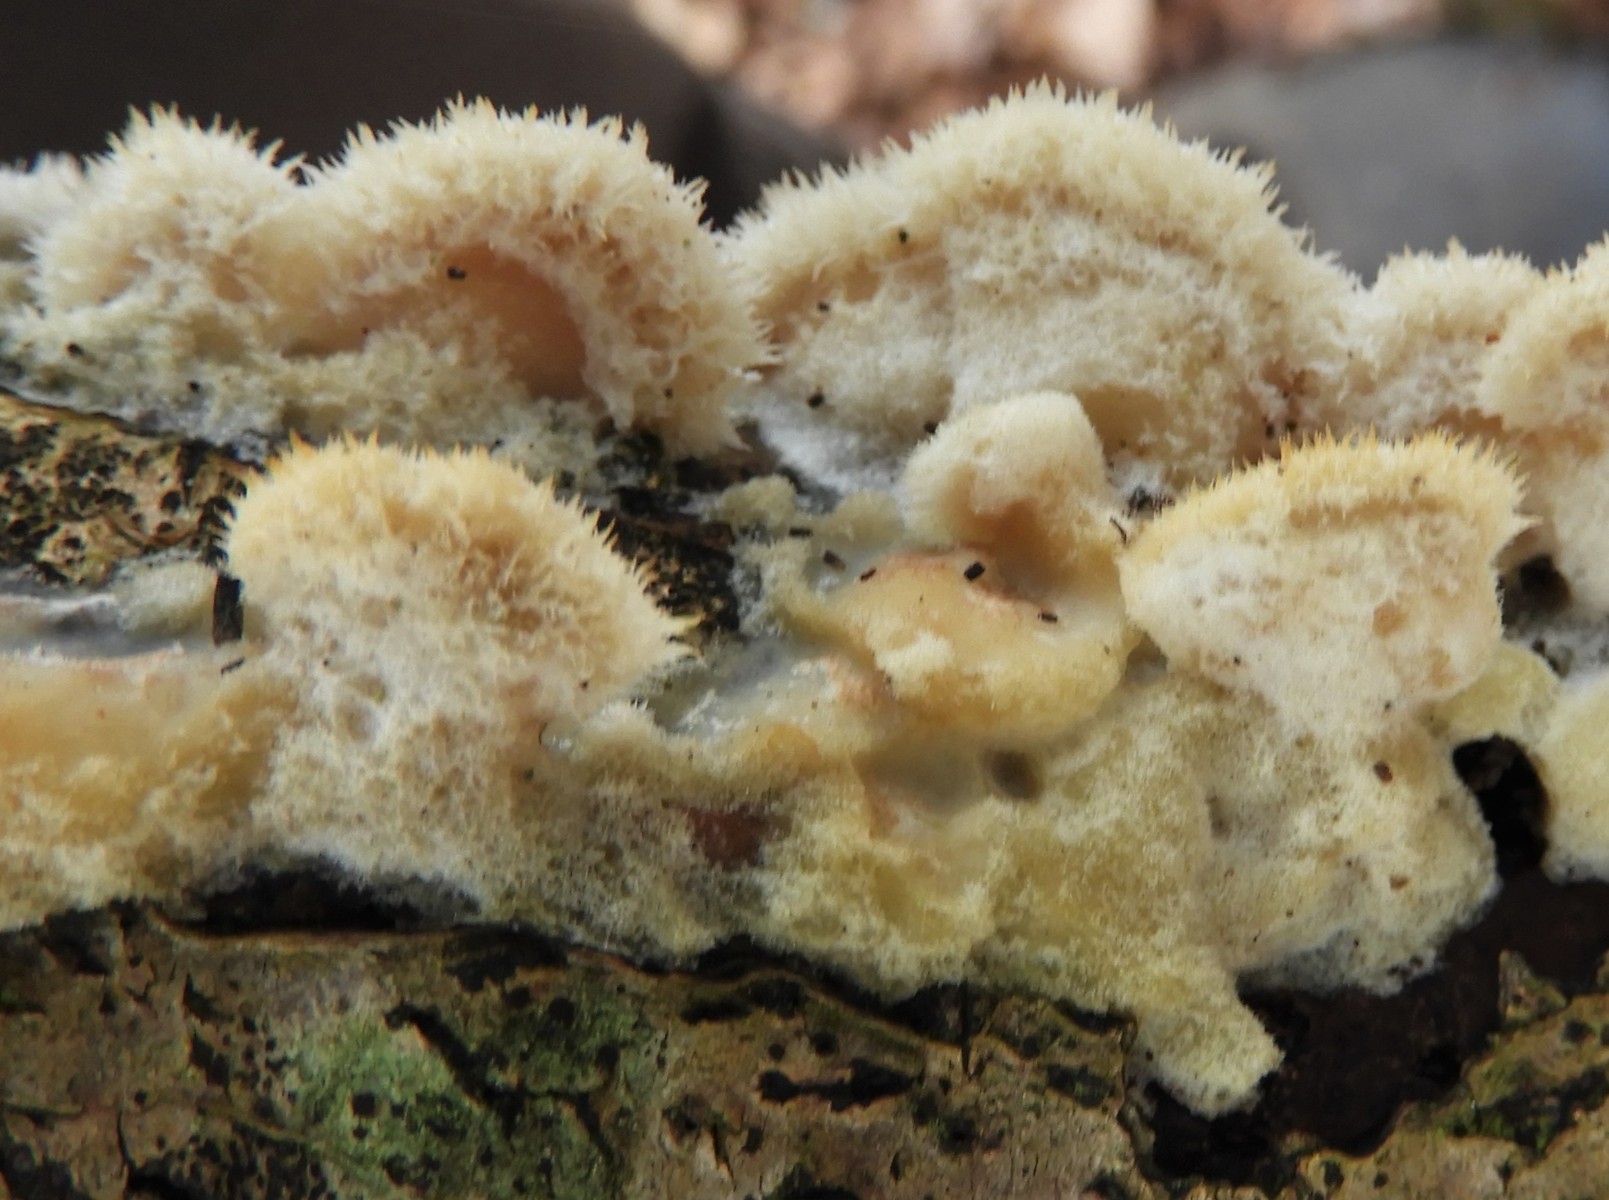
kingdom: Fungi
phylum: Basidiomycota
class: Agaricomycetes
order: Polyporales
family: Irpicaceae
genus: Vitreoporus
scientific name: Vitreoporus dichrous
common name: tofarvet foldporesvamp
